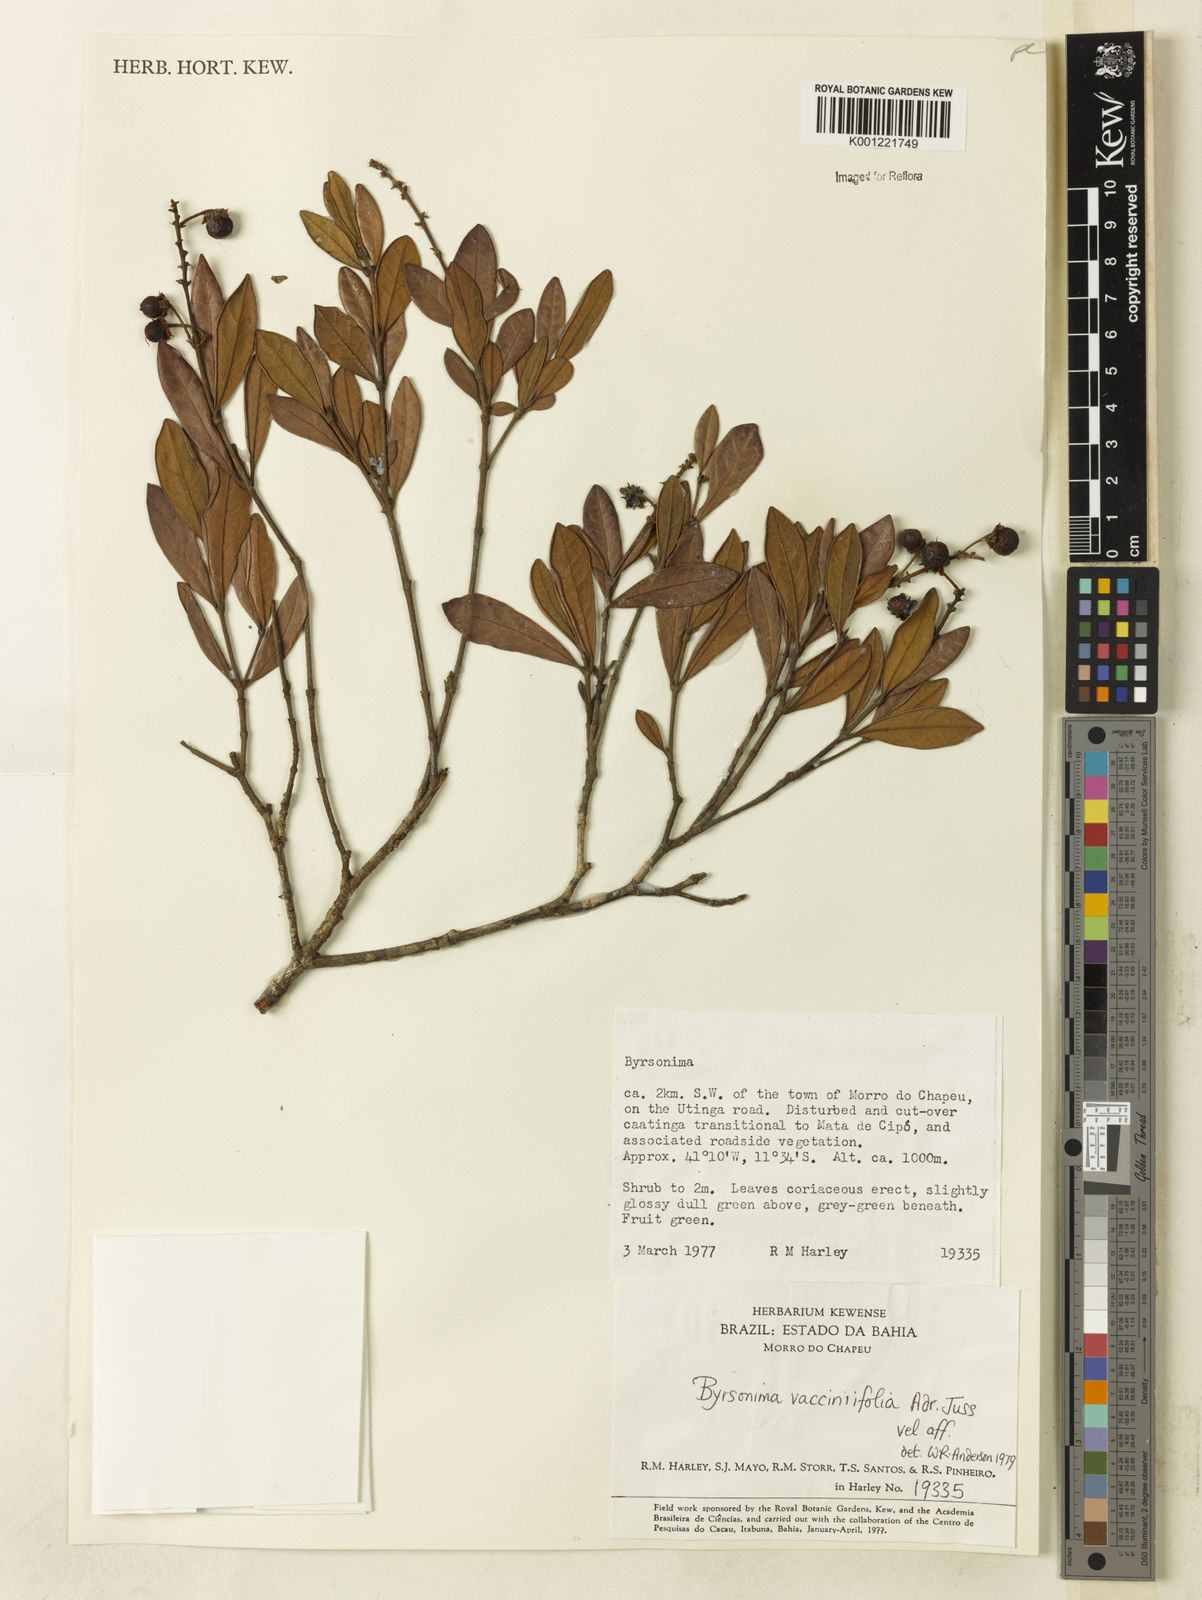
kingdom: Plantae
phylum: Tracheophyta
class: Magnoliopsida
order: Malpighiales
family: Malpighiaceae
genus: Byrsonima
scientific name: Byrsonima vacciniifolia
